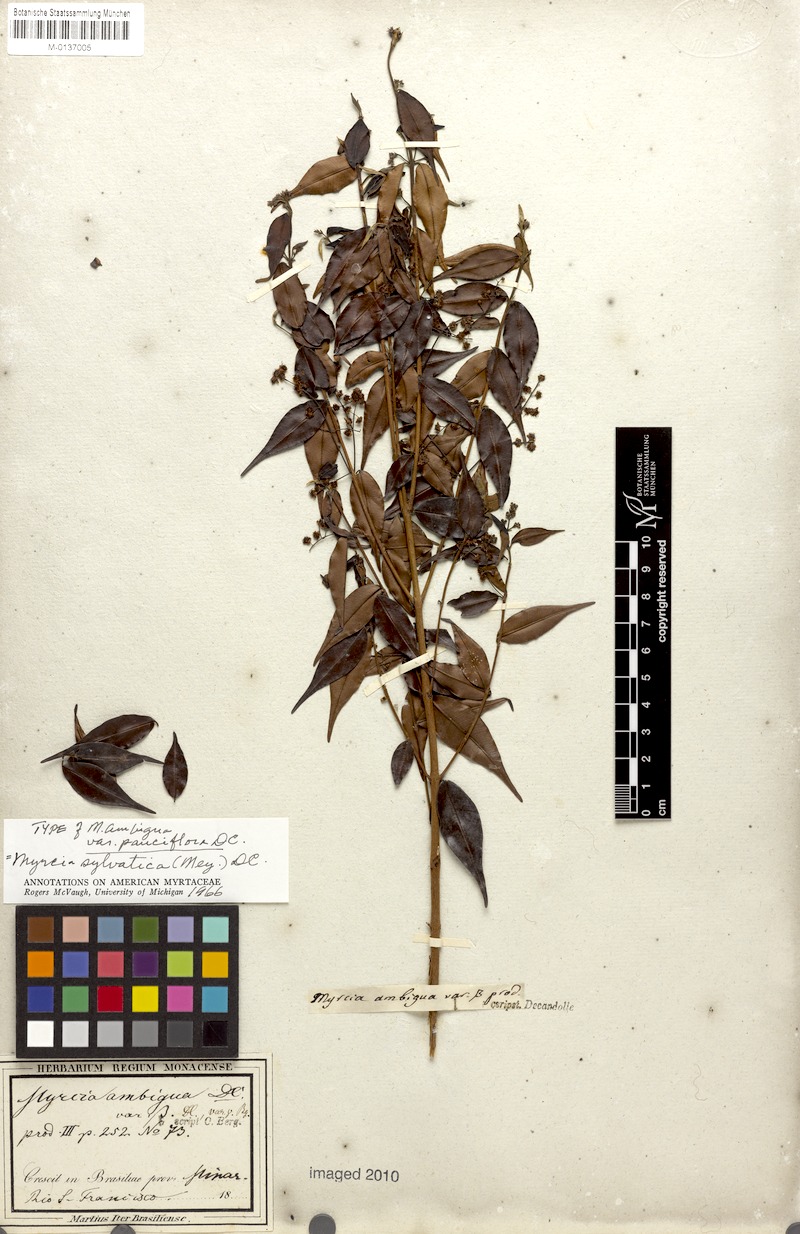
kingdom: Plantae
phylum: Tracheophyta
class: Magnoliopsida
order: Myrtales
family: Myrtaceae
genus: Myrcia
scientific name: Myrcia sylvatica
